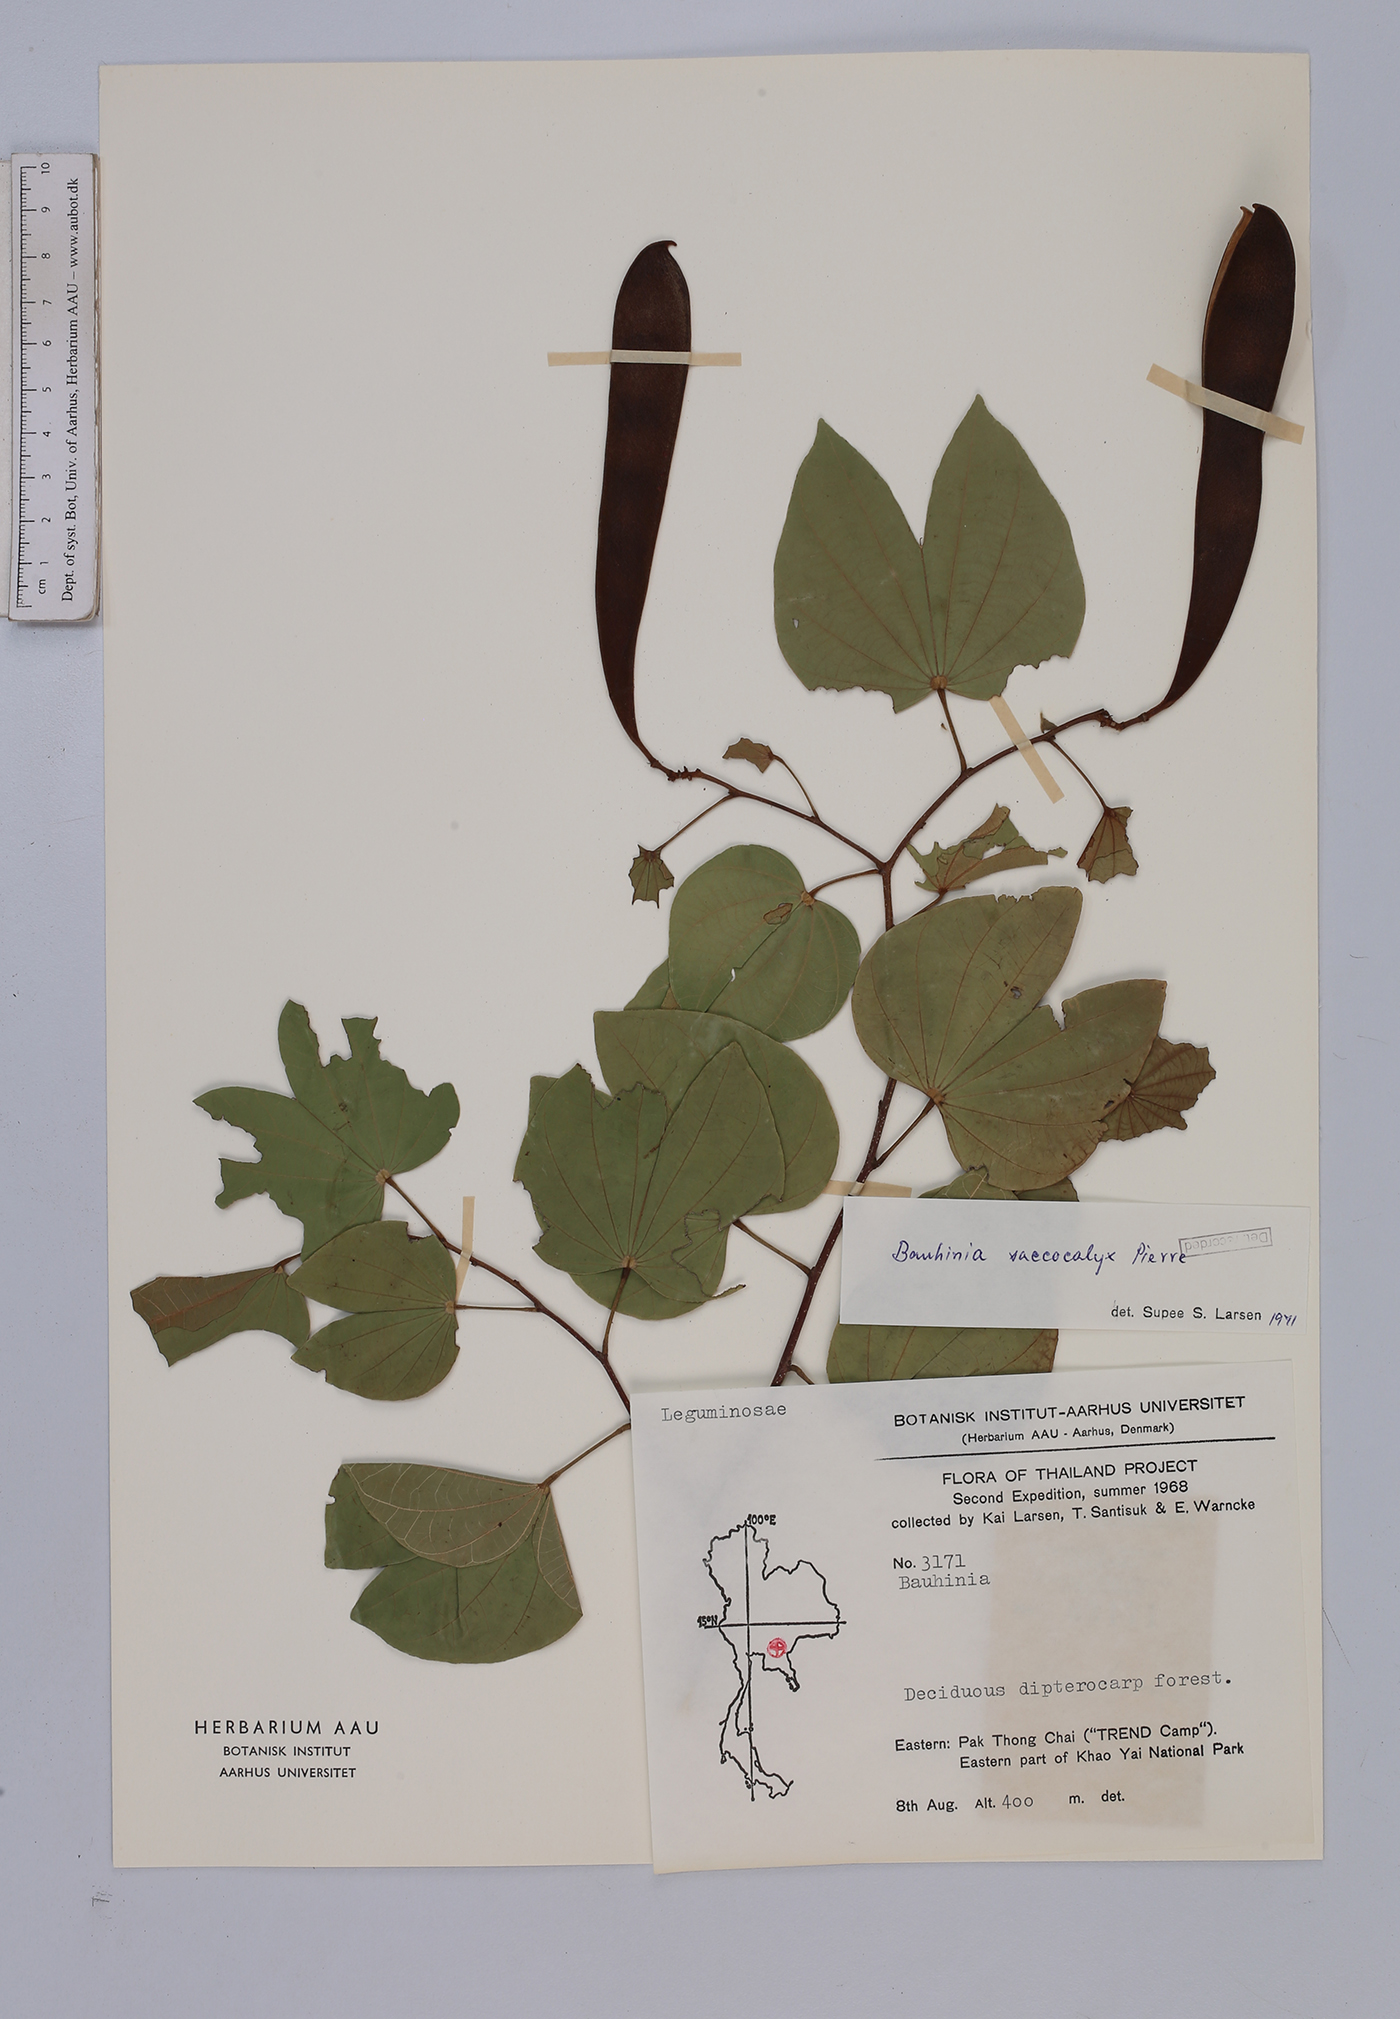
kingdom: Plantae
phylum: Tracheophyta
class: Magnoliopsida
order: Fabales
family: Fabaceae
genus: Bauhinia
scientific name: Bauhinia saccocalyx
